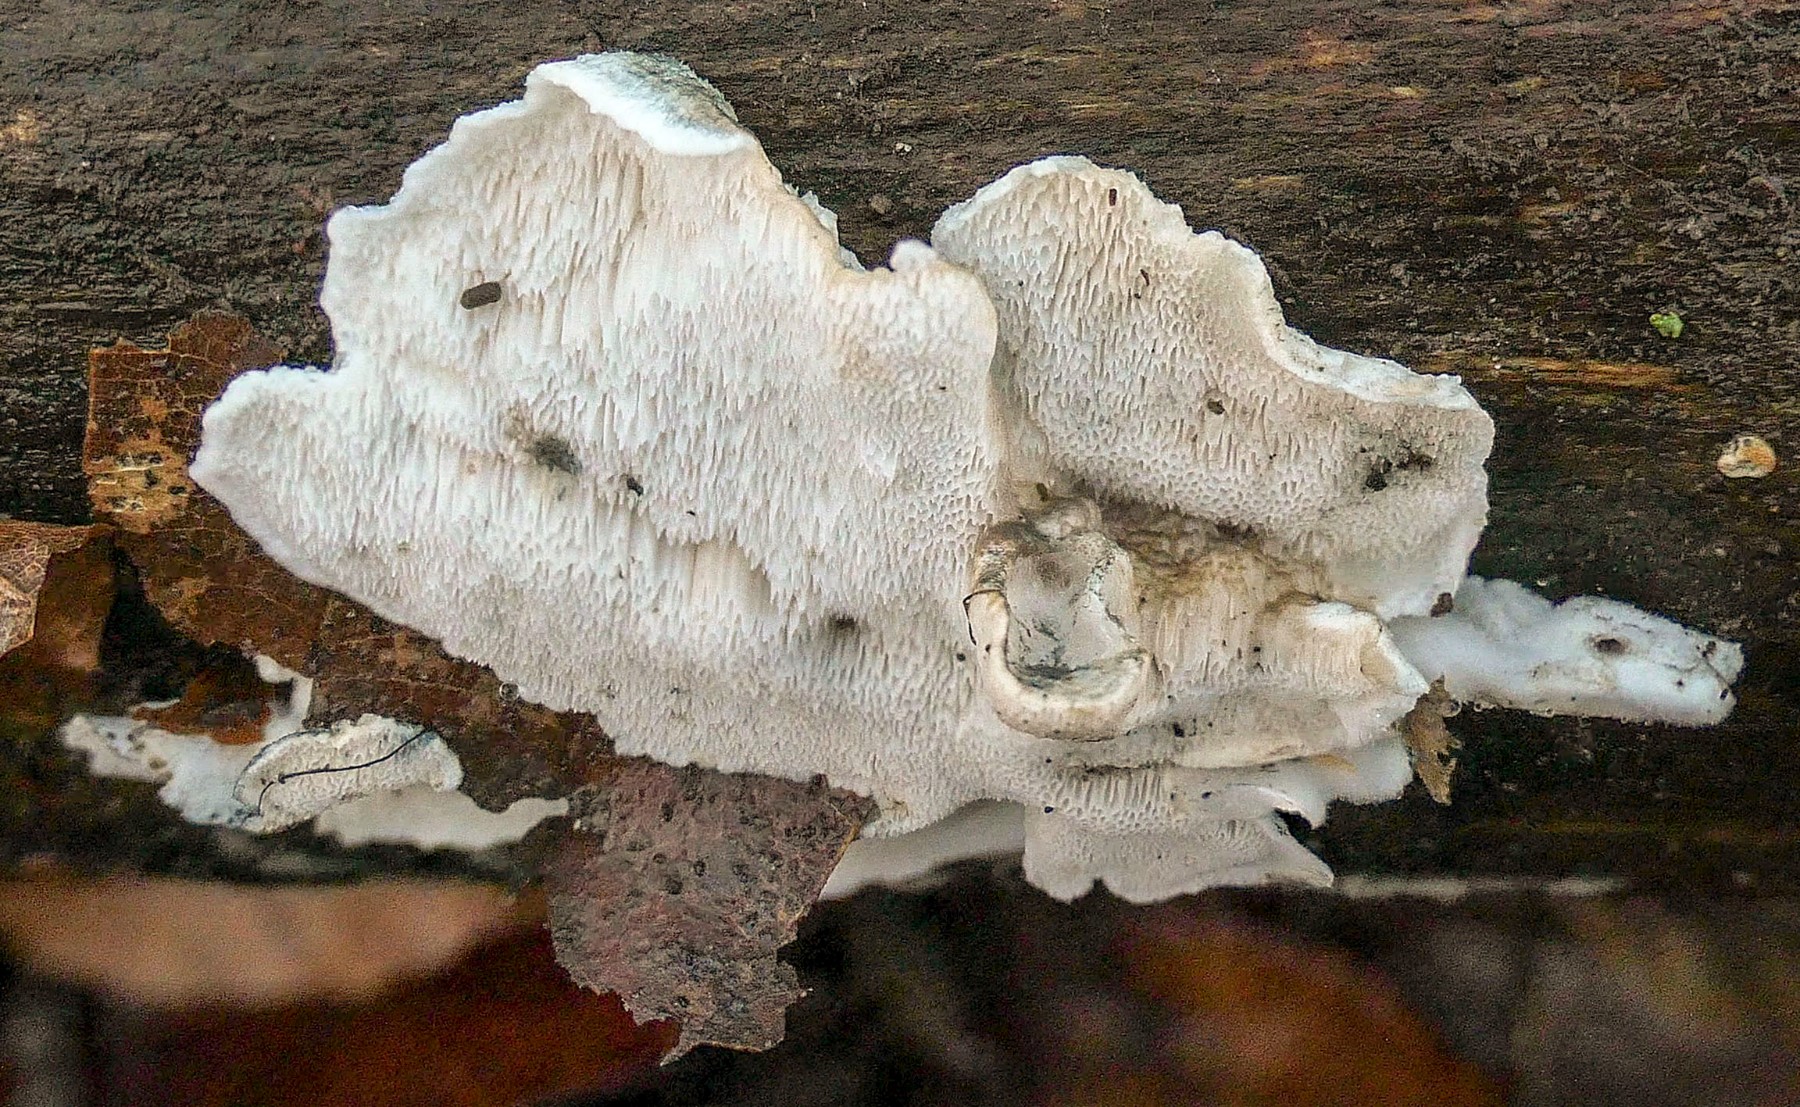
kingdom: Fungi
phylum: Basidiomycota
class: Agaricomycetes
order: Polyporales
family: Polyporaceae
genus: Cyanosporus
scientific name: Cyanosporus alni
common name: blegblå kødporesvamp
